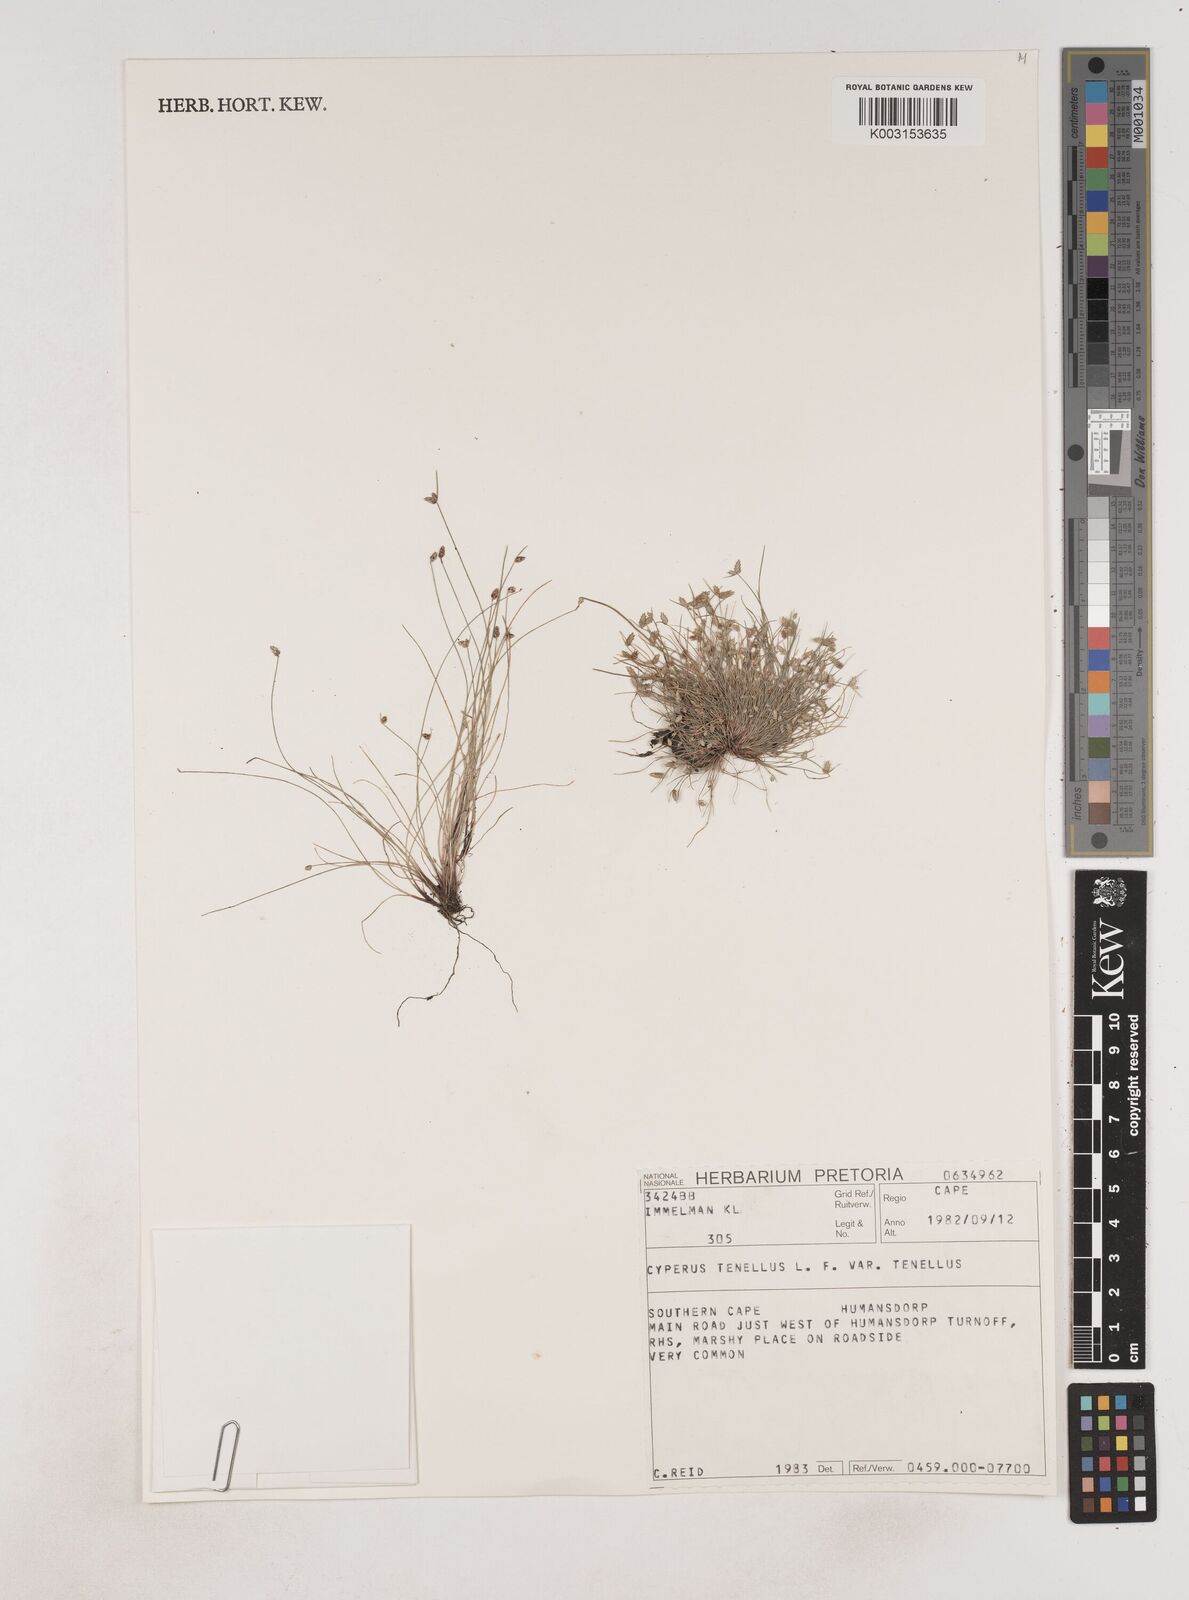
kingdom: Plantae
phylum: Tracheophyta
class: Liliopsida
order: Poales
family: Cyperaceae
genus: Isolepis
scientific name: Isolepis levynsiana
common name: Sedge
